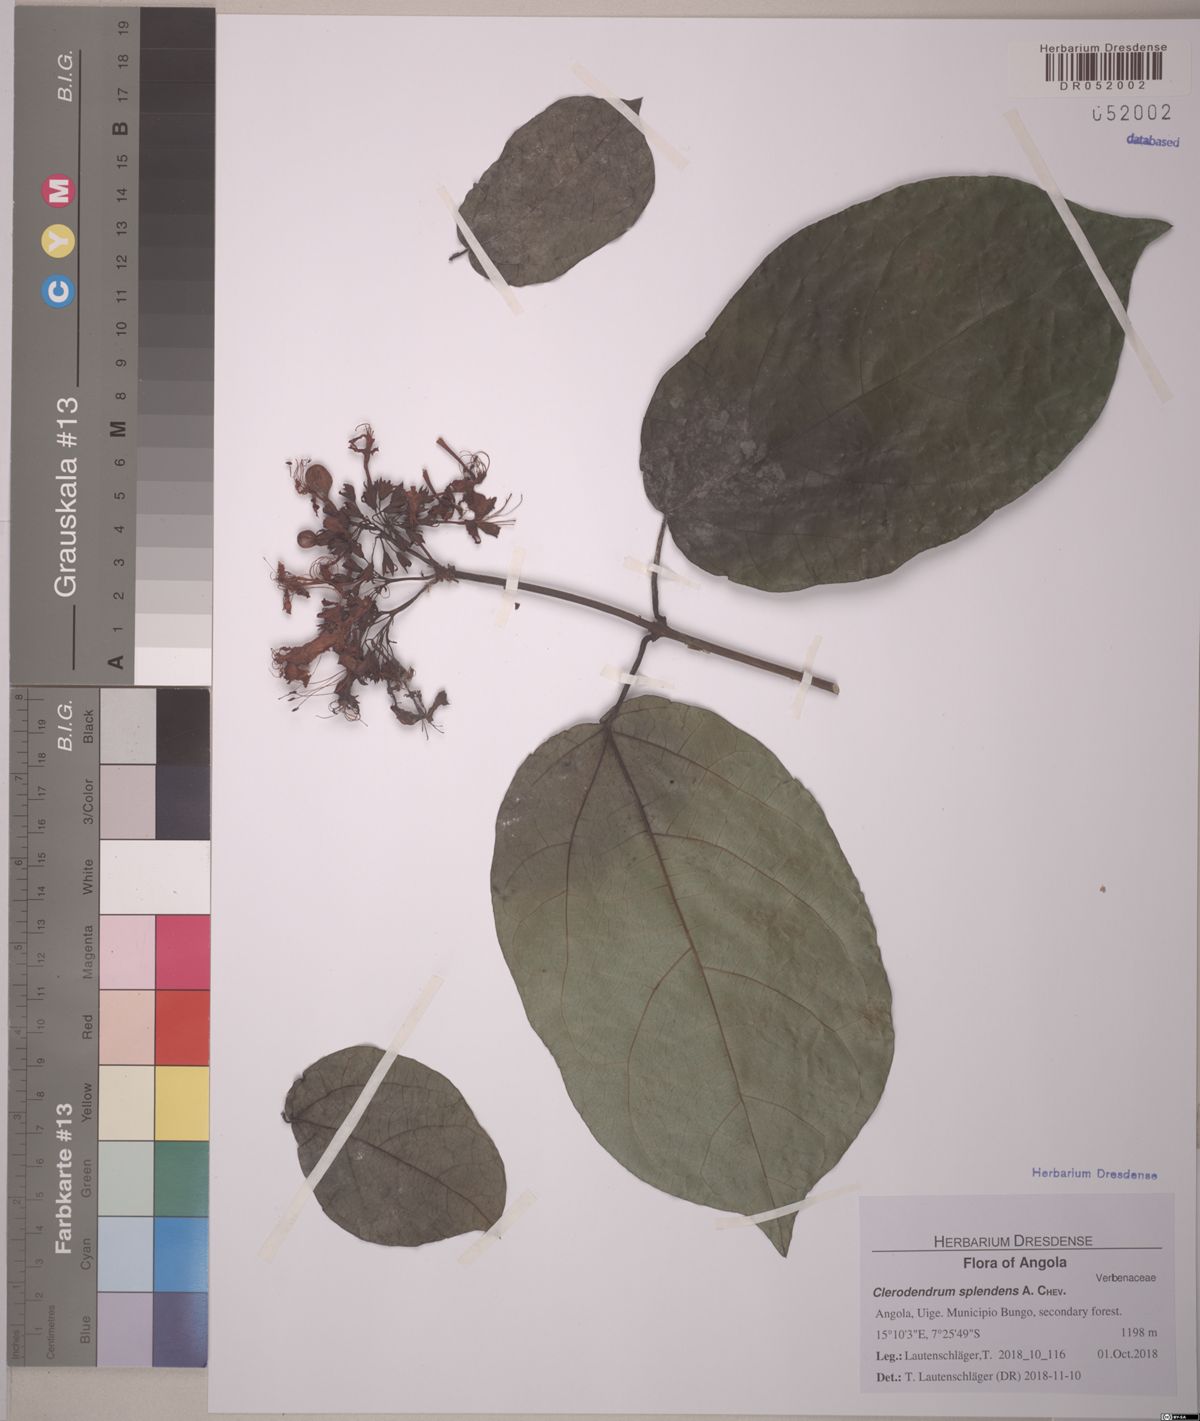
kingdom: Plantae
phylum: Tracheophyta
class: Magnoliopsida
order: Lamiales
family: Lamiaceae
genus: Clerodendrum
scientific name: Clerodendrum splendens
